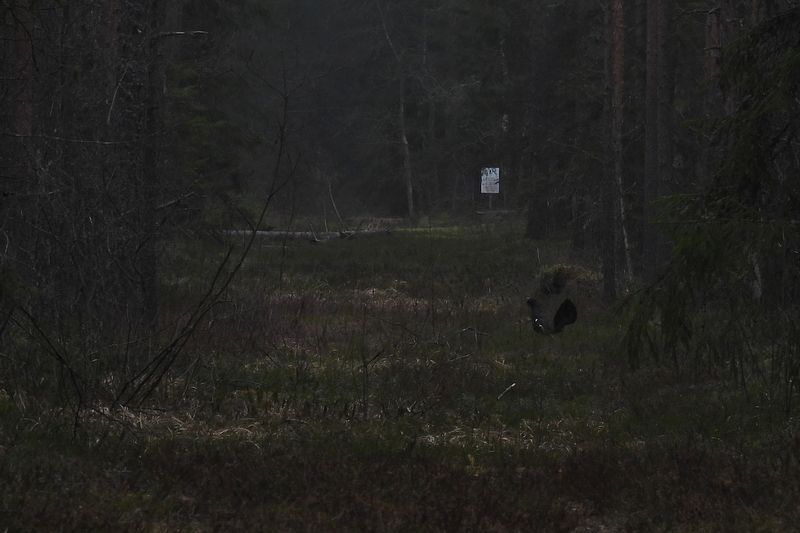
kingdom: Animalia
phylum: Chordata
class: Aves
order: Galliformes
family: Phasianidae
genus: Tetrao
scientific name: Tetrao urogallus
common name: Western capercaillie
